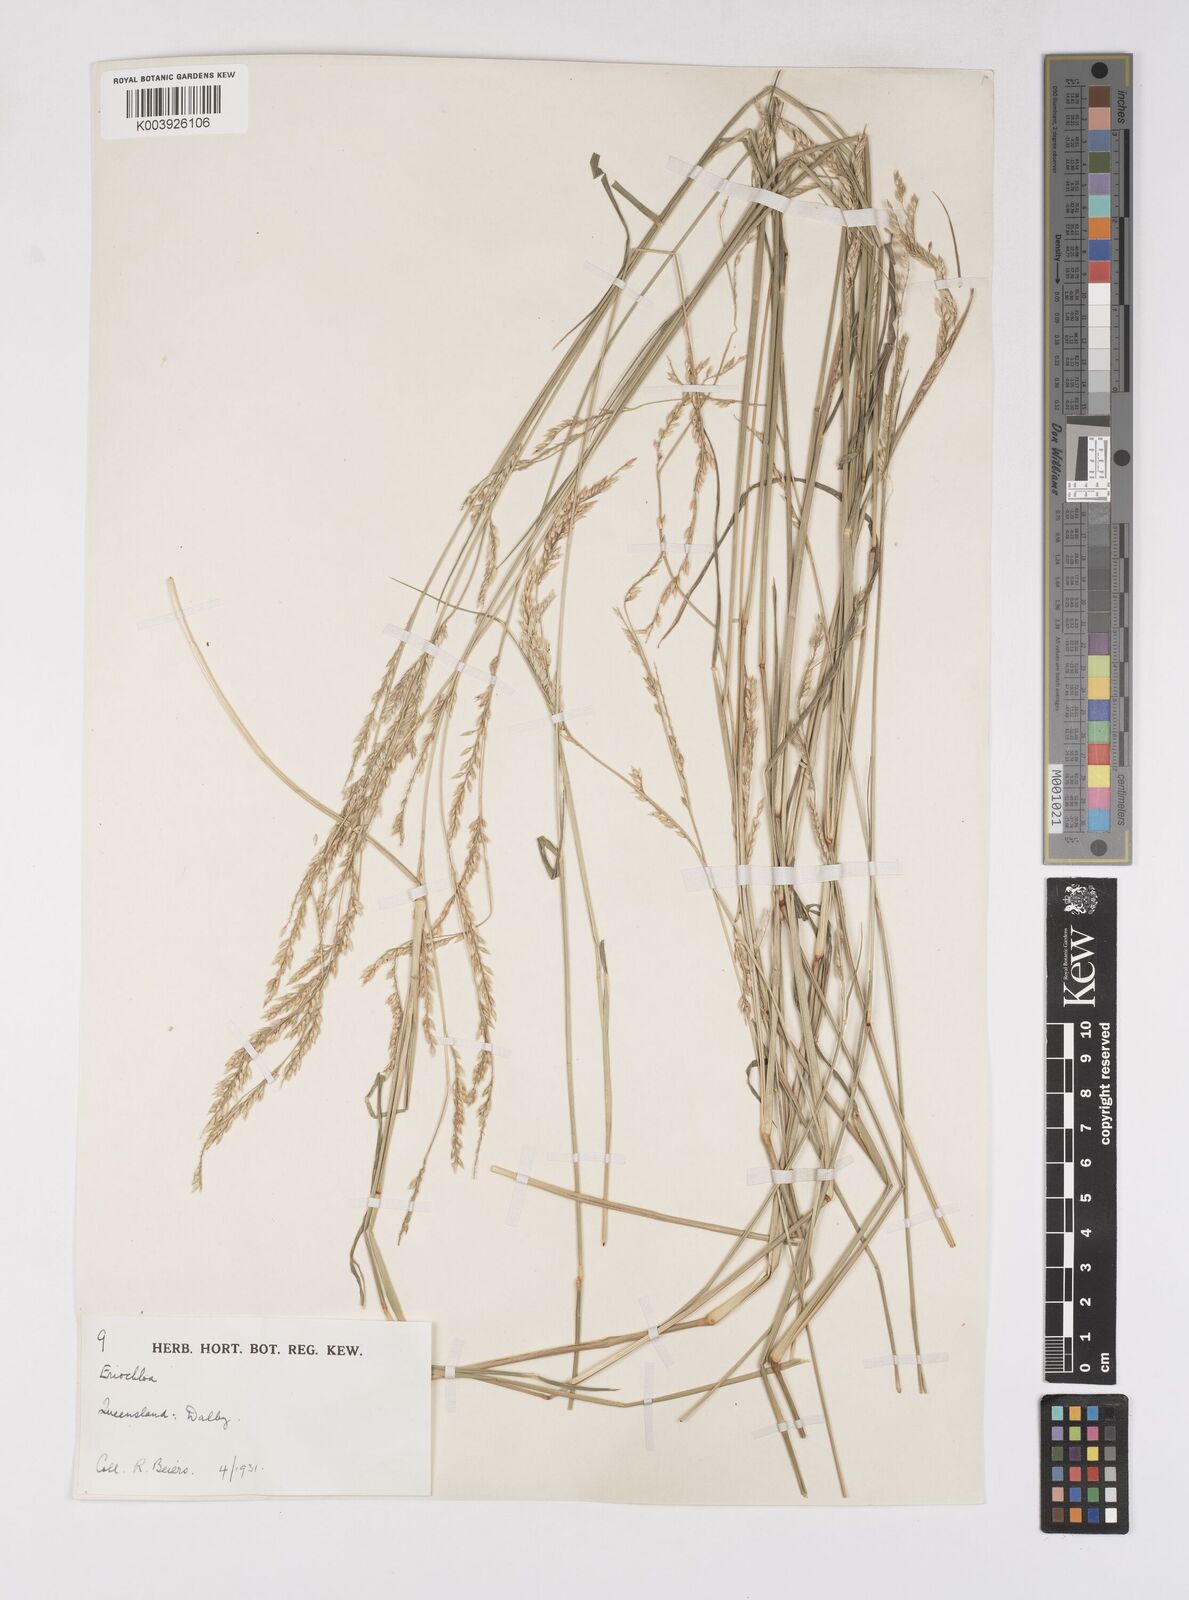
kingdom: Plantae
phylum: Tracheophyta
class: Liliopsida
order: Poales
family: Poaceae
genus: Eriochloa
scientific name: Eriochloa
